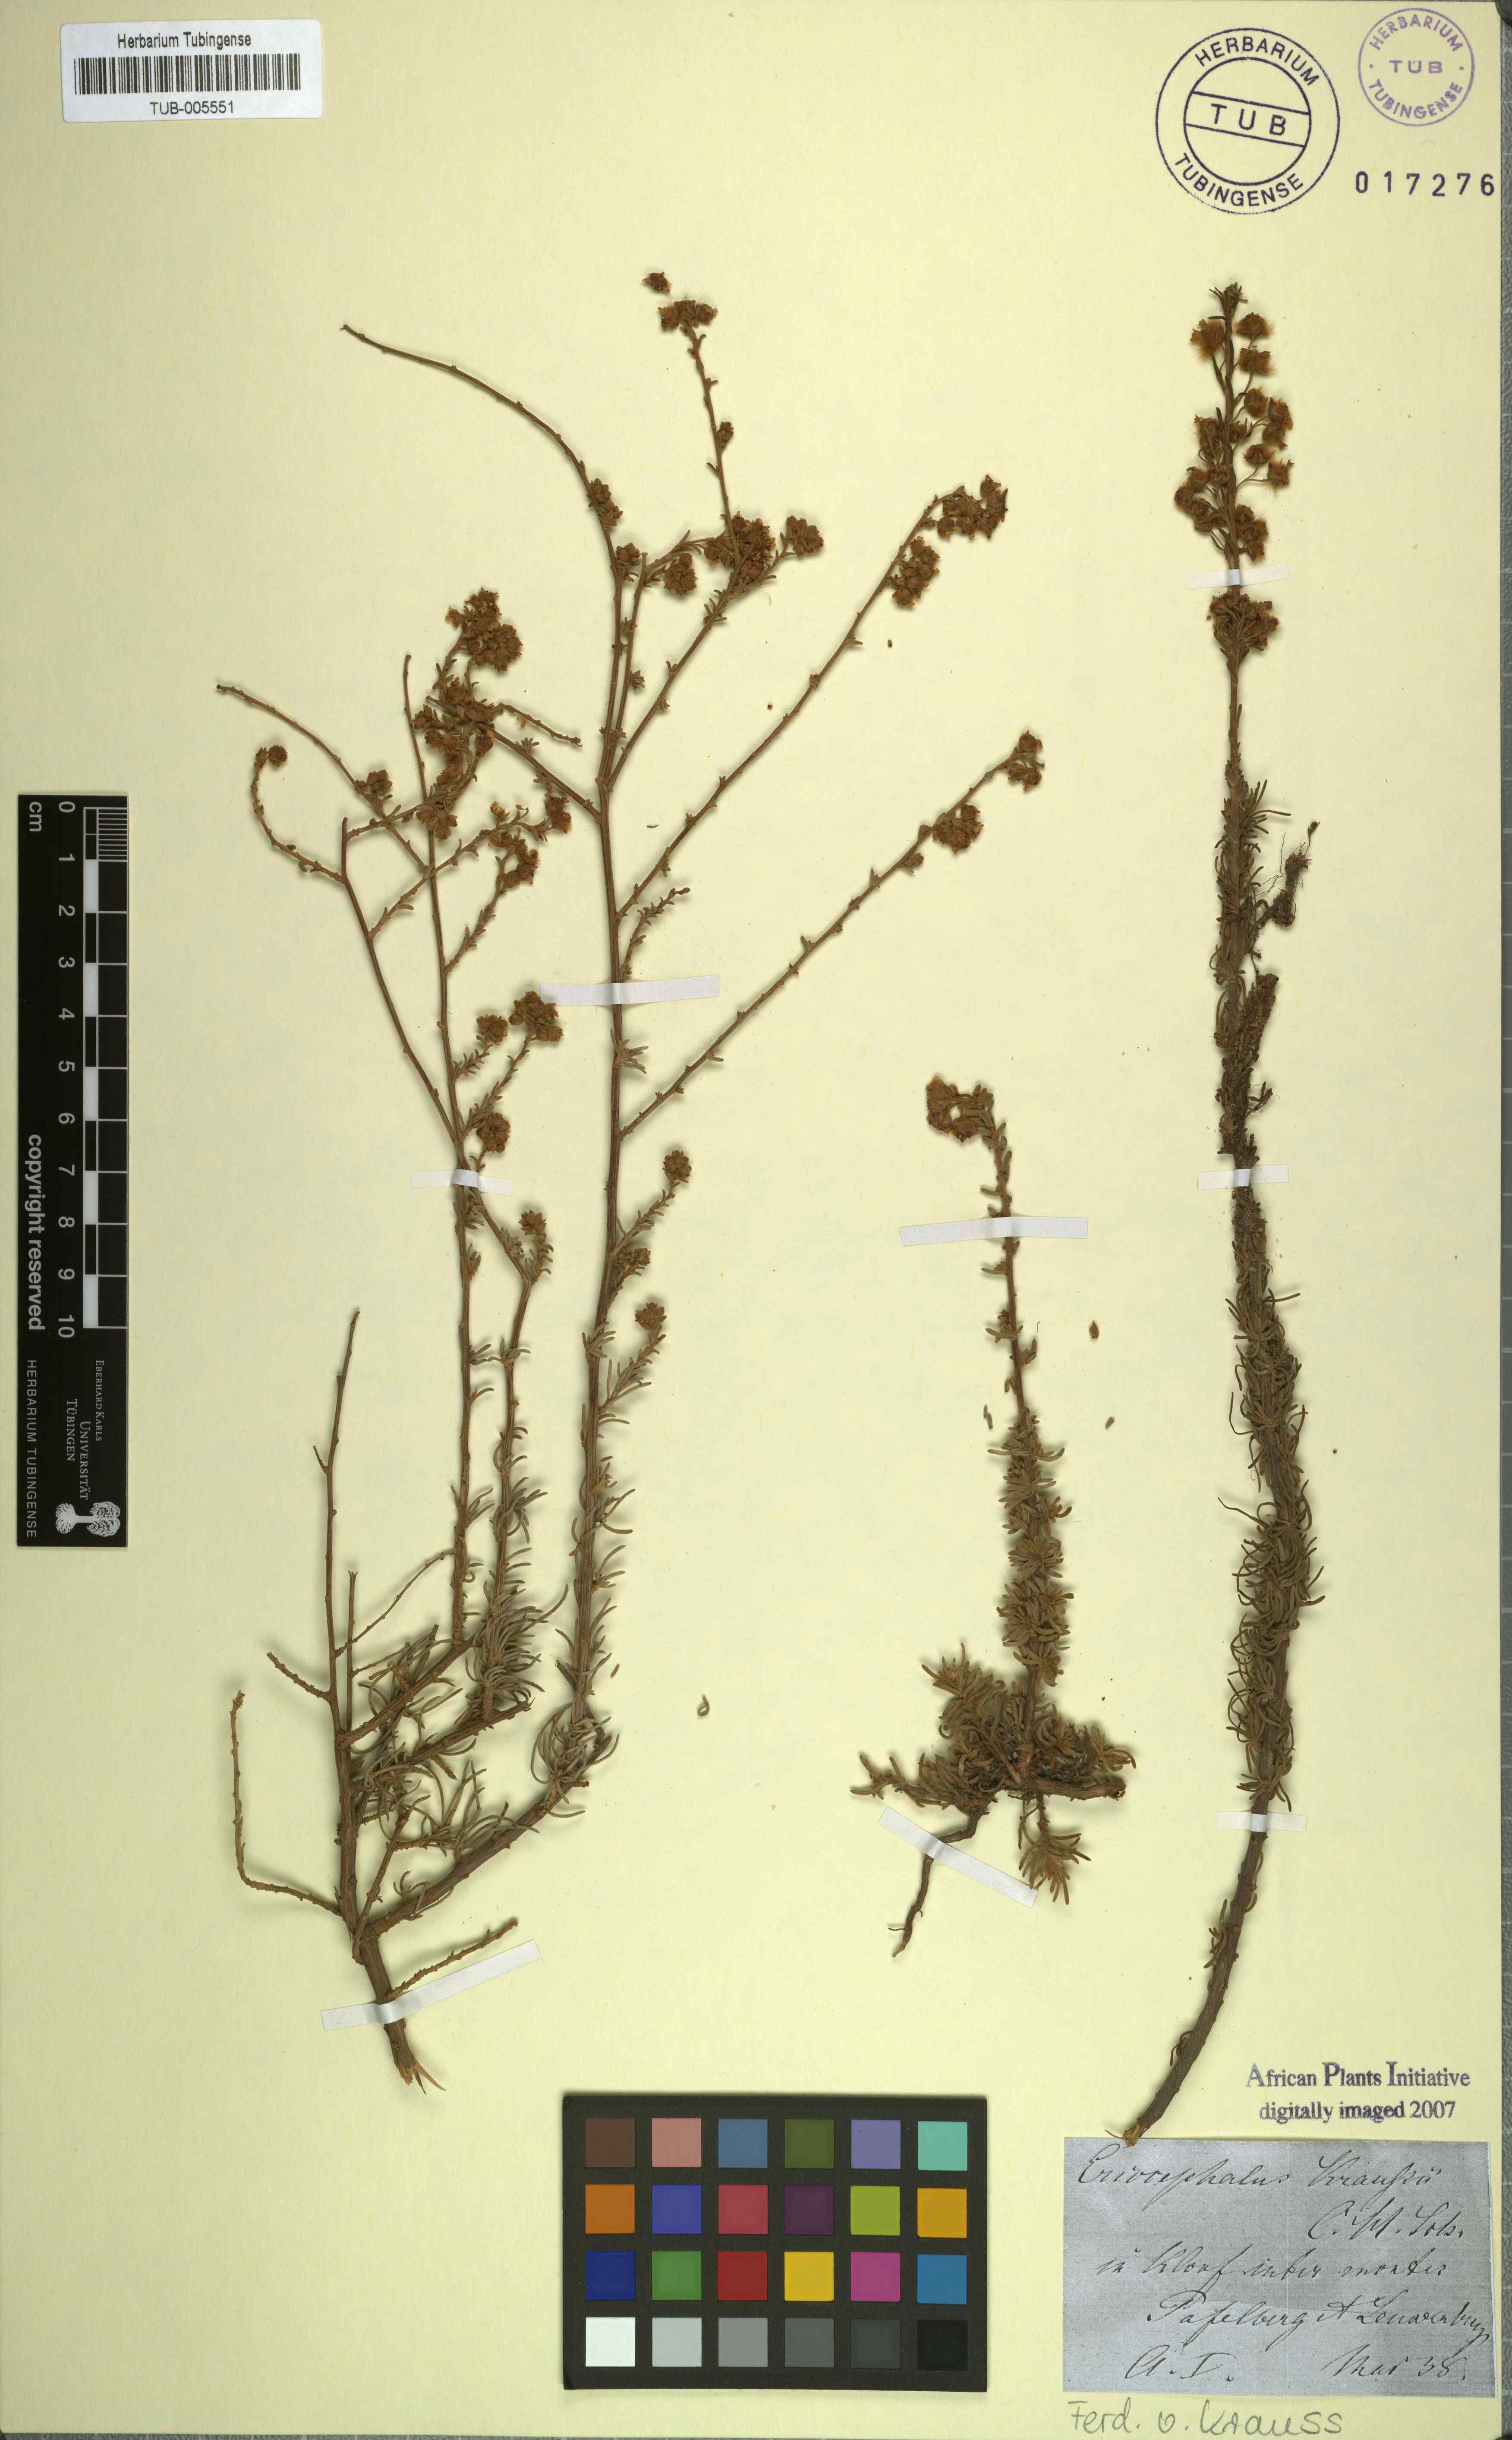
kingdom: Plantae
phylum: Tracheophyta
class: Magnoliopsida
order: Asterales
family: Asteraceae
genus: Eriocephalus
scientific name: Eriocephalus
